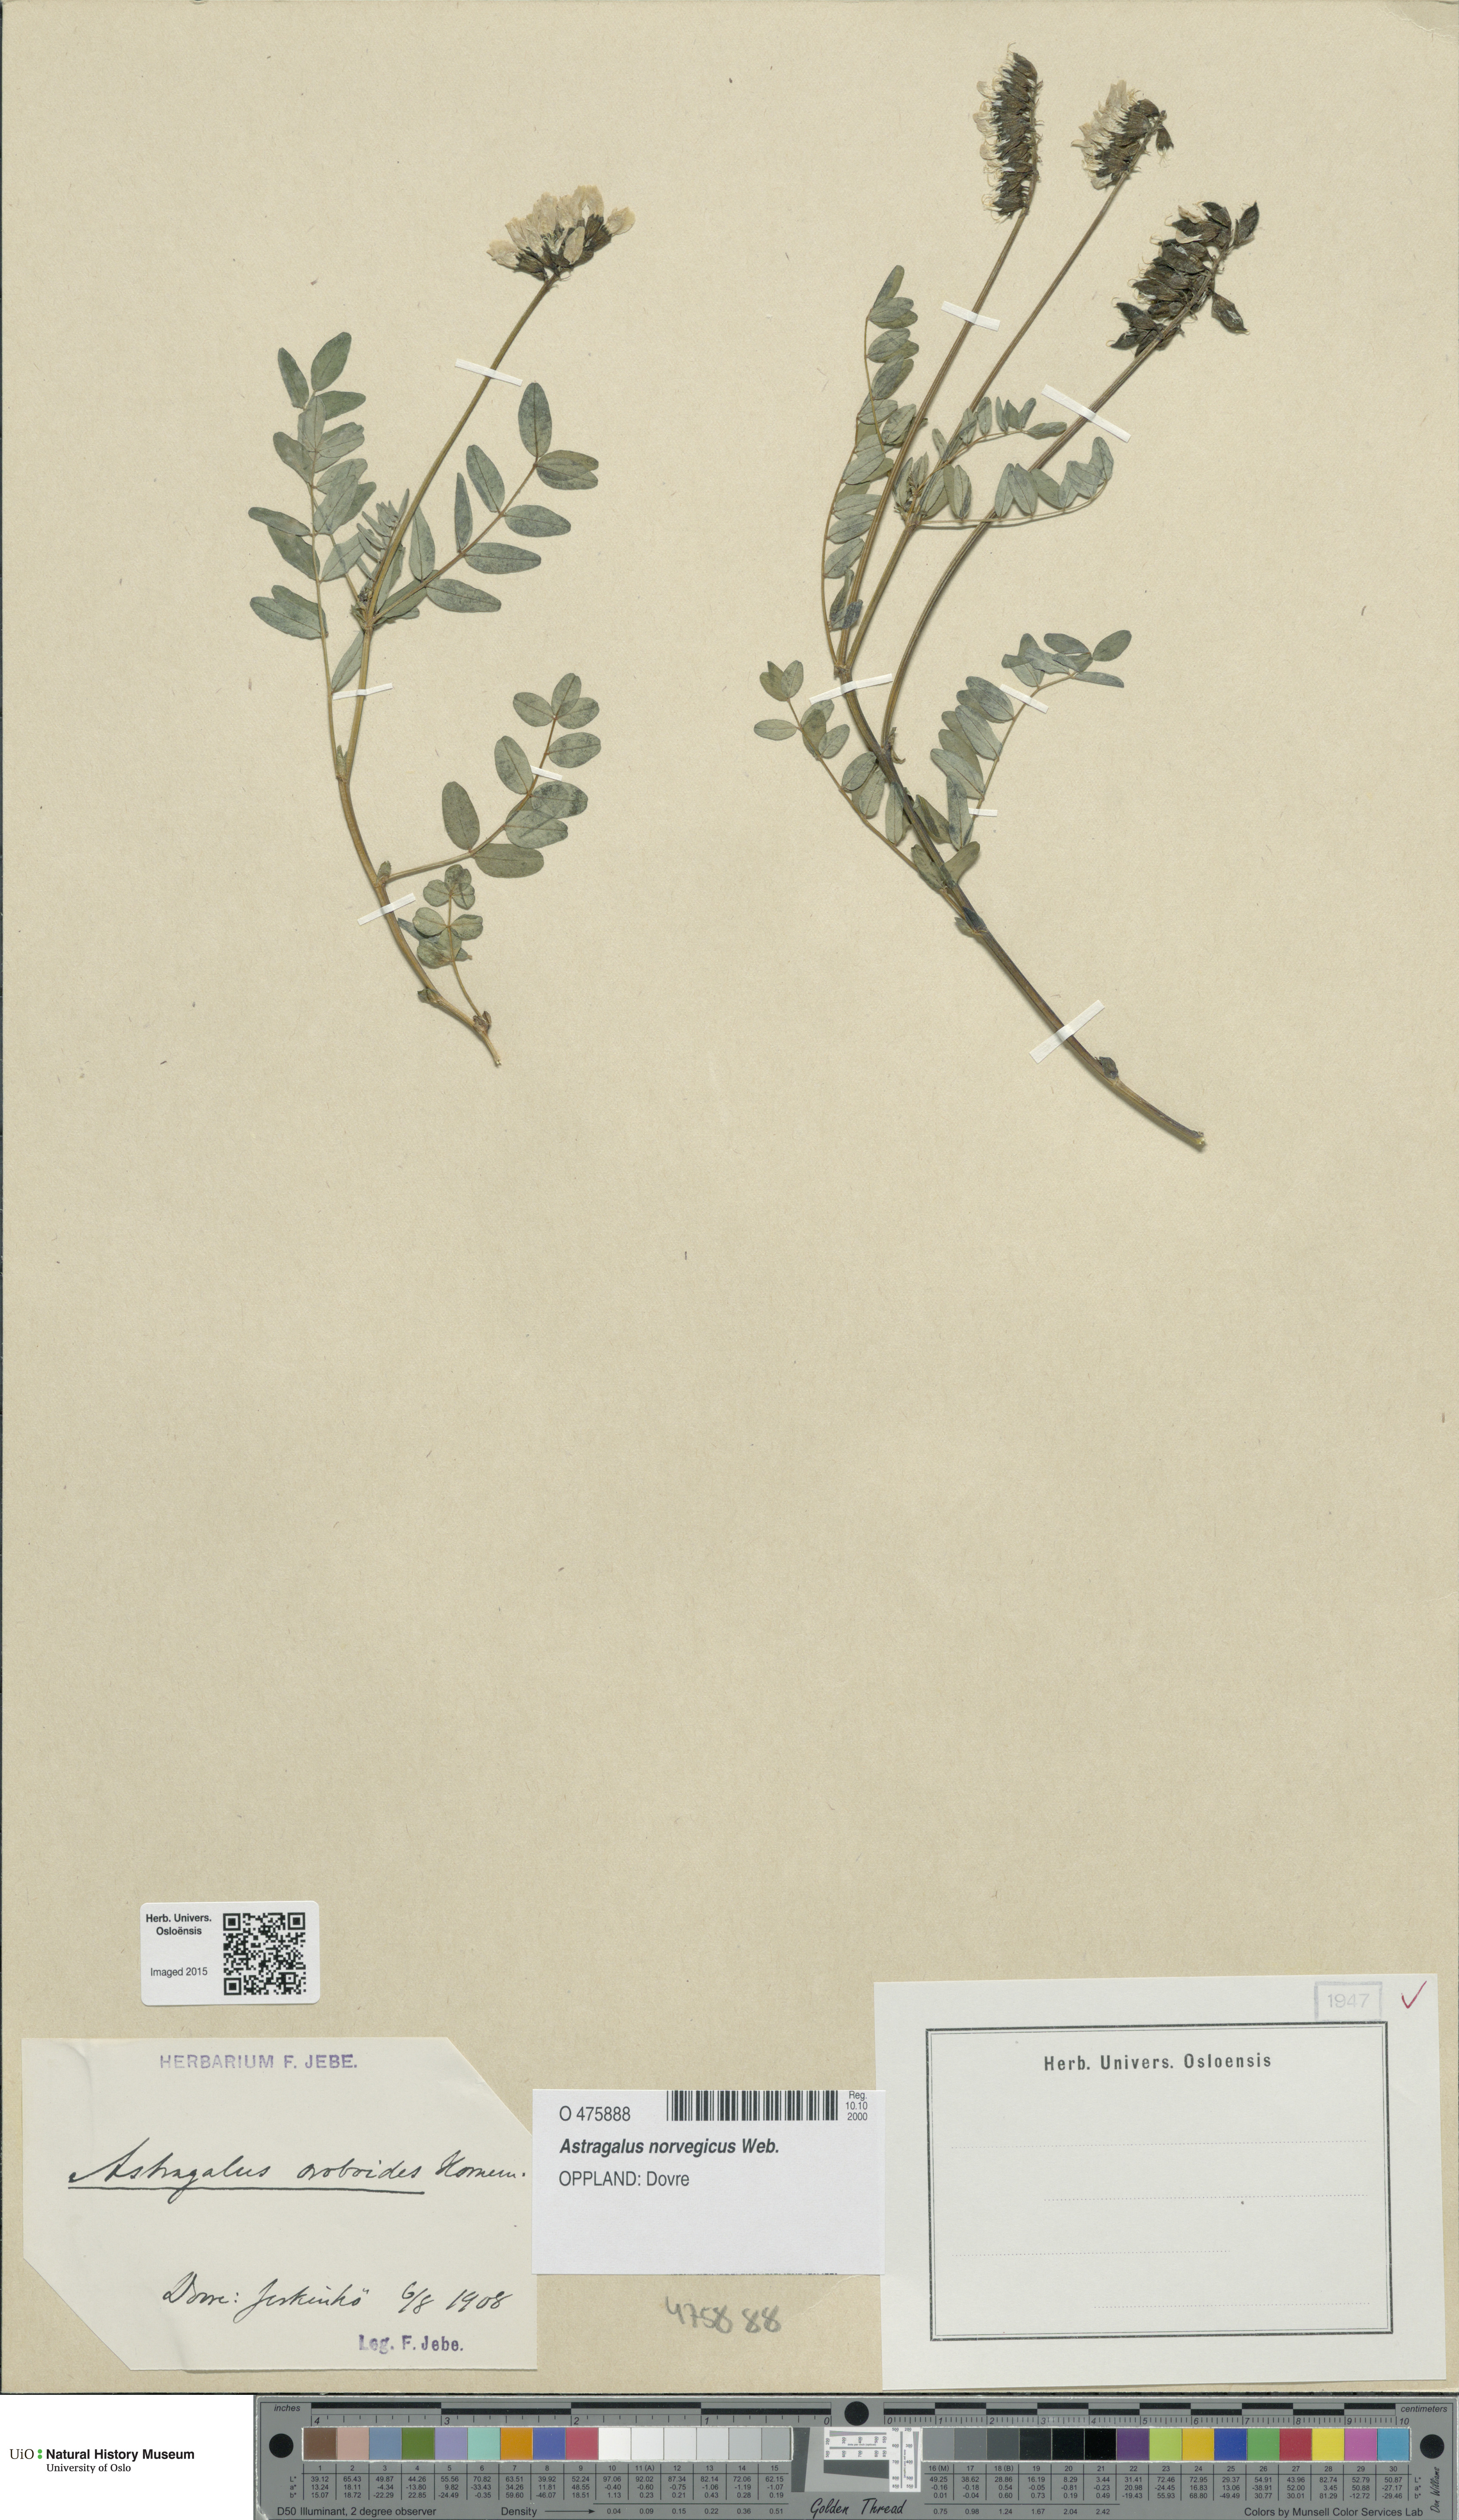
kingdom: Plantae
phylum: Tracheophyta
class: Magnoliopsida
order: Fabales
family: Fabaceae
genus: Astragalus
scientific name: Astragalus norvegicus
